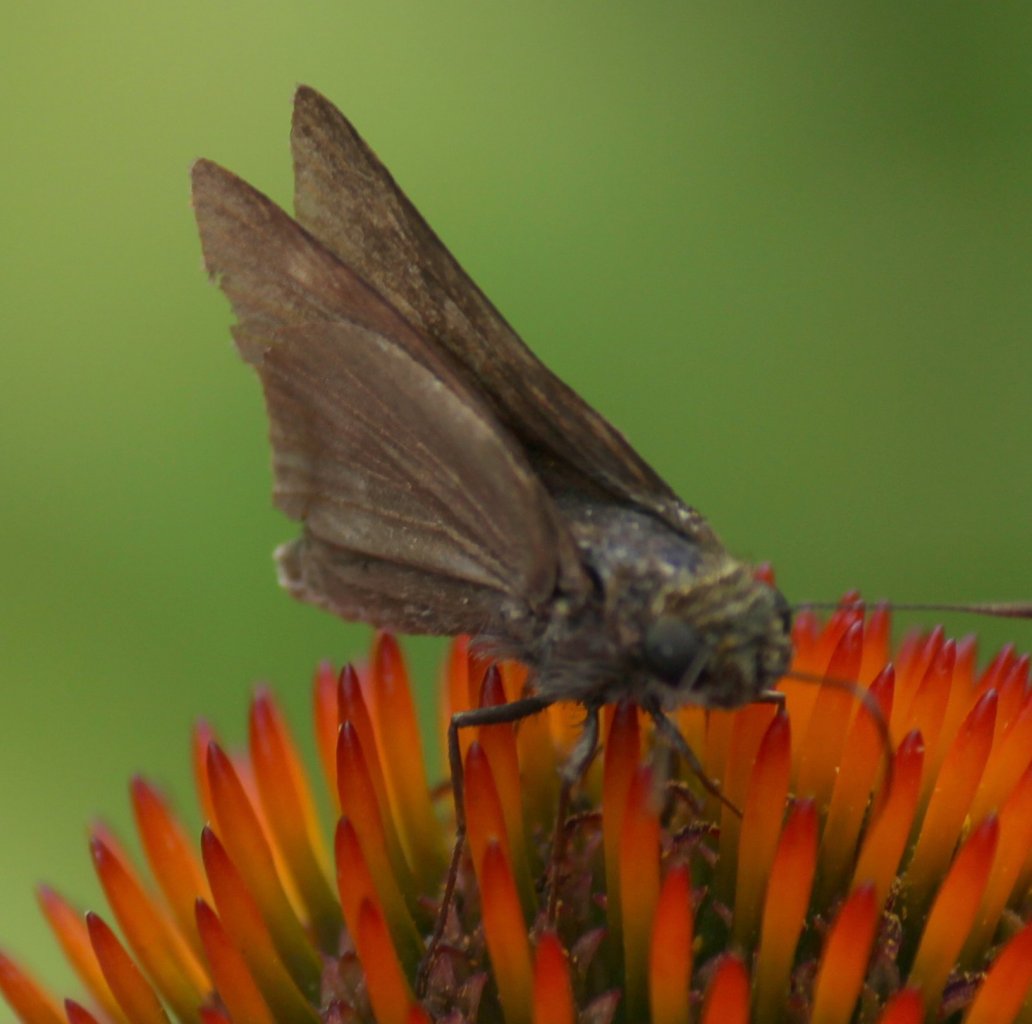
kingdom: Animalia
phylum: Arthropoda
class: Insecta
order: Lepidoptera
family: Hesperiidae
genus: Euphyes
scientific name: Euphyes vestris
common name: Dun Skipper
